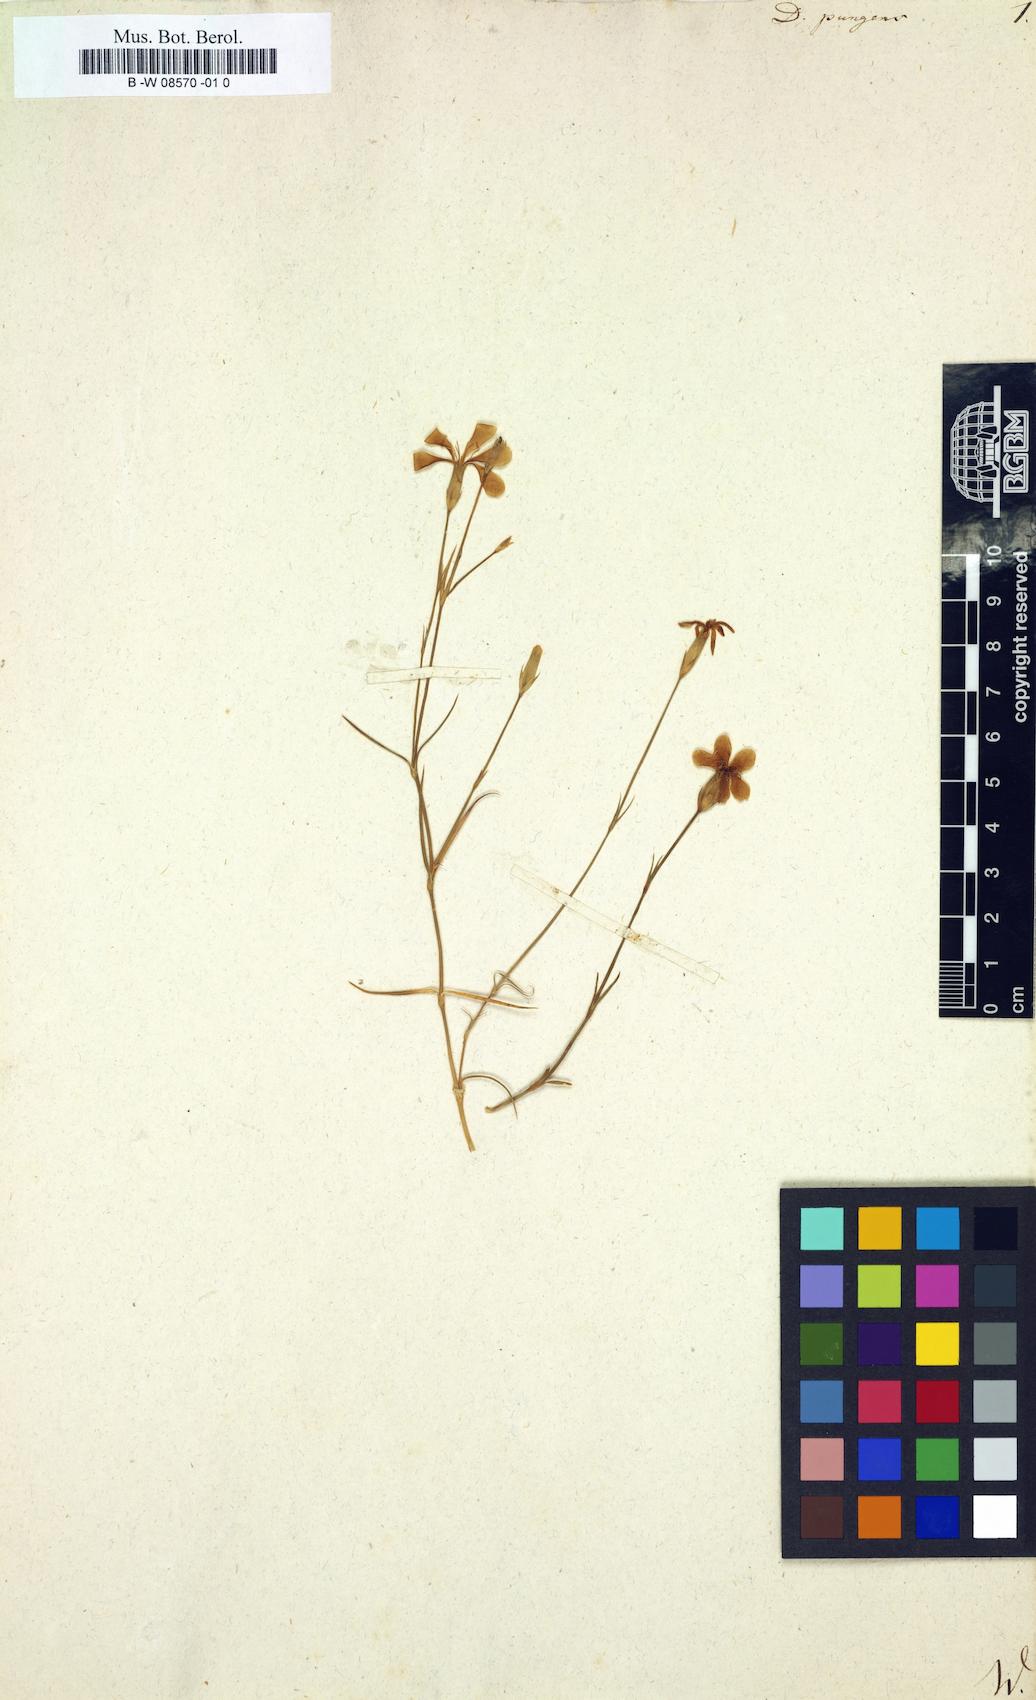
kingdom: Plantae
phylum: Tracheophyta
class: Magnoliopsida
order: Caryophyllales
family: Caryophyllaceae
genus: Dianthus
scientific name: Dianthus pungens
